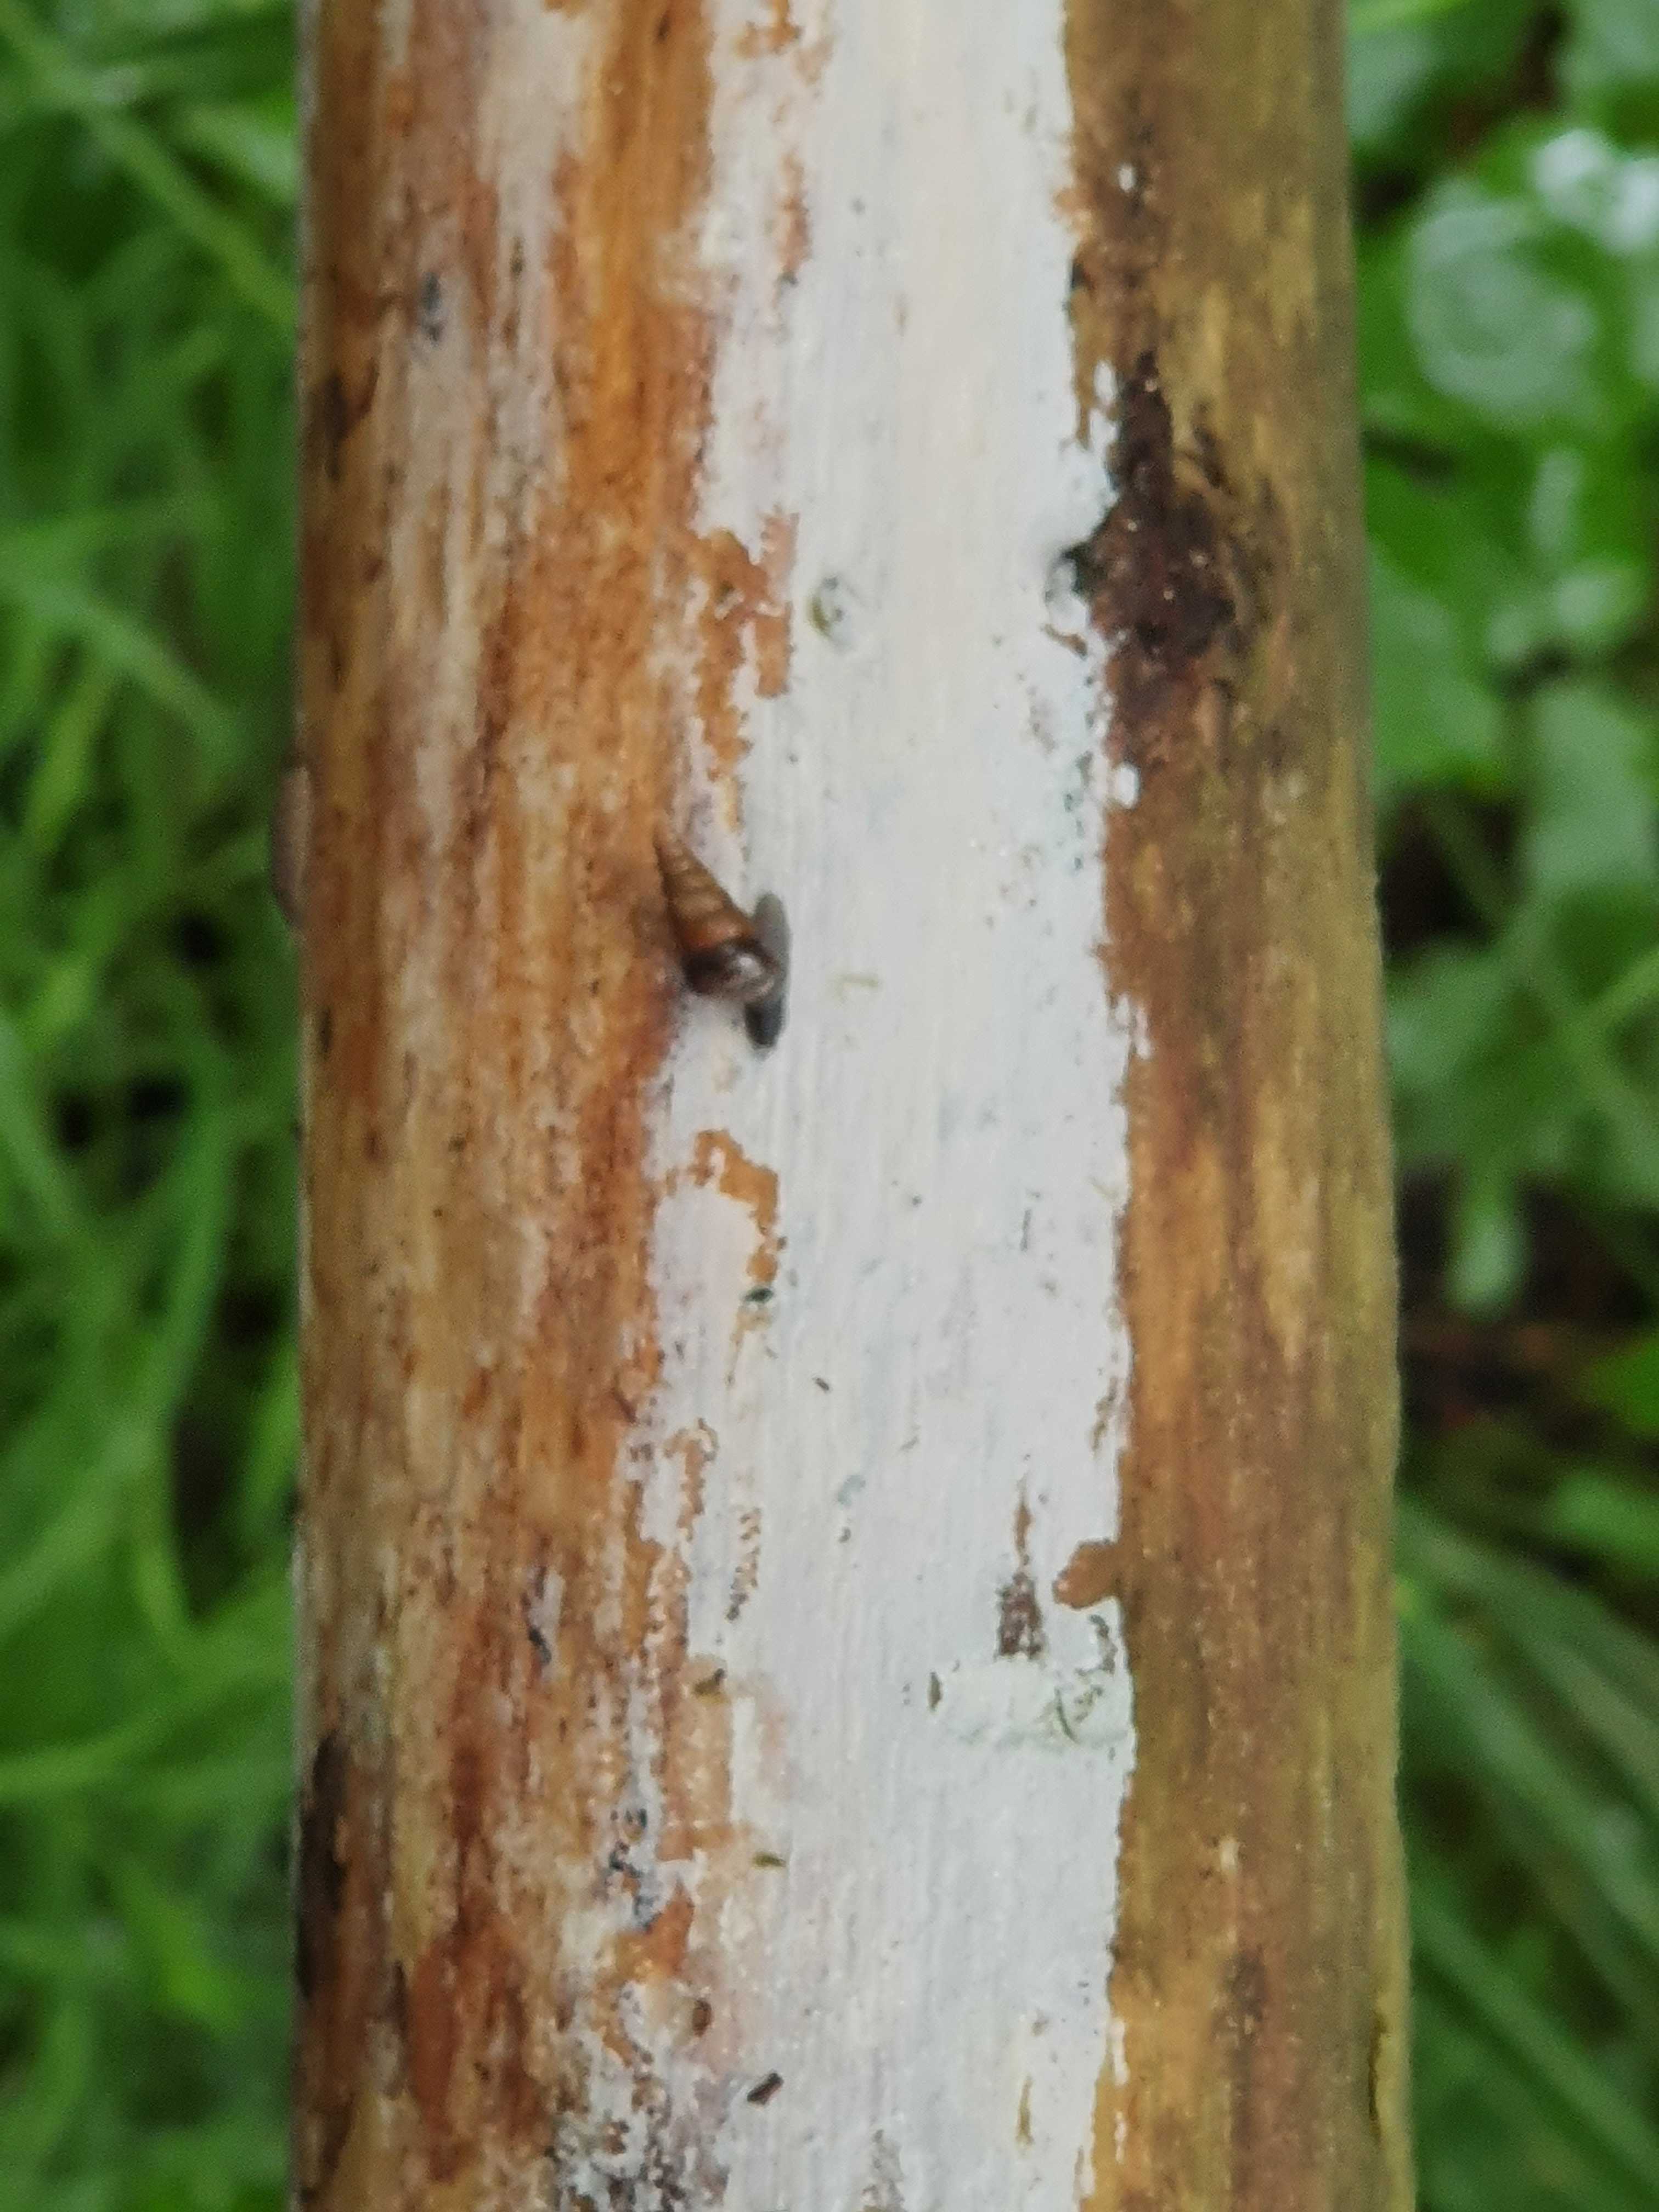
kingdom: Fungi
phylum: Basidiomycota
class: Tremellomycetes
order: Tremellales
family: Exidiaceae
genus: Exidiopsis
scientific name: Exidiopsis effusa
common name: smuk bævrehinde
